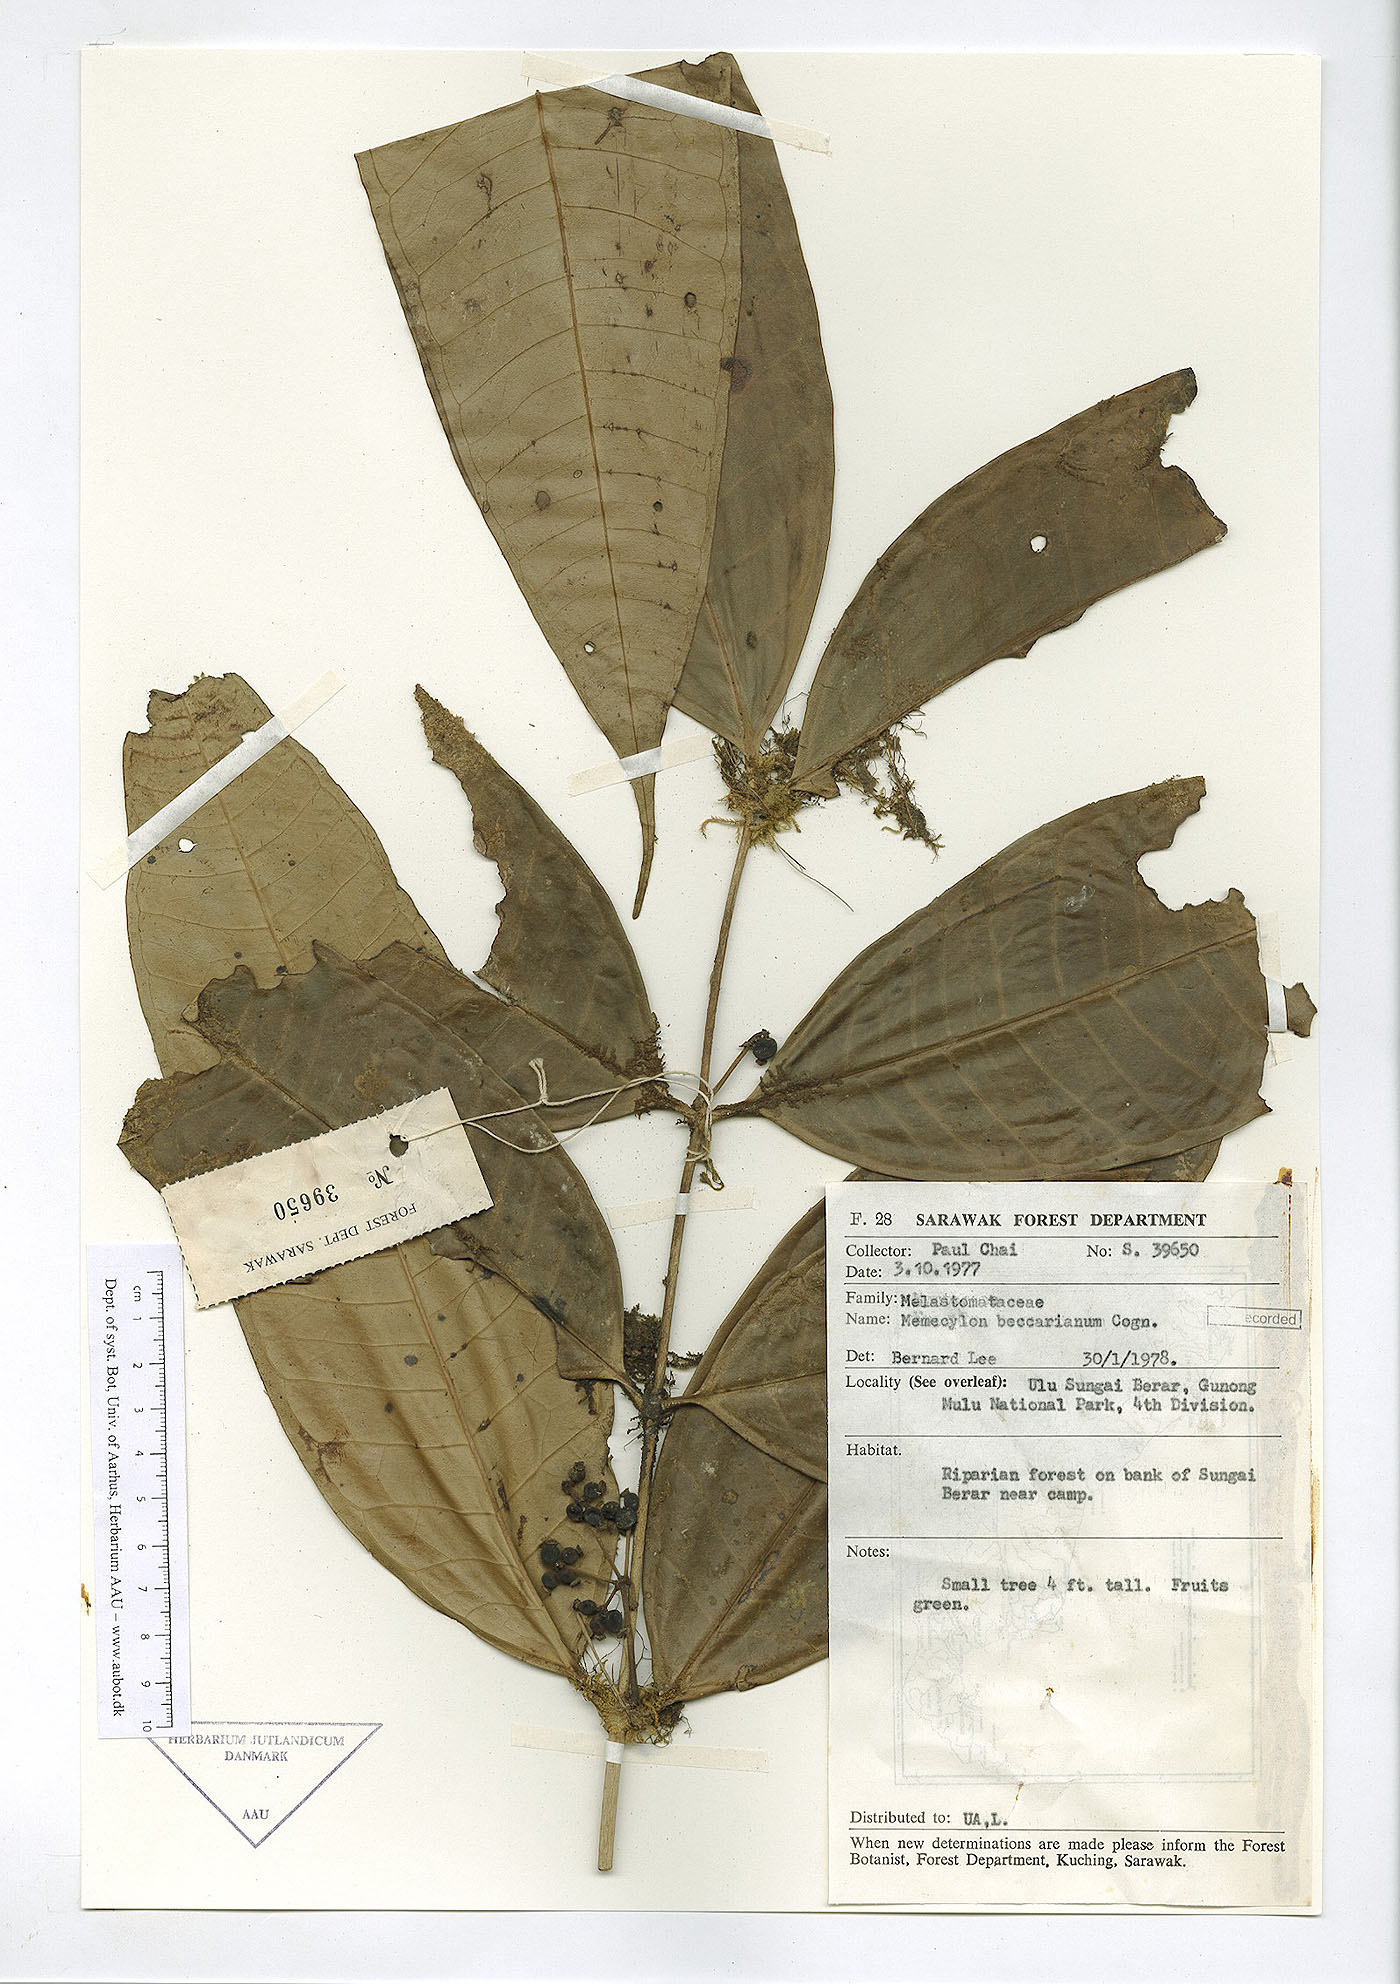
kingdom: Plantae
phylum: Tracheophyta
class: Magnoliopsida
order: Myrtales
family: Melastomataceae
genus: Memecylon
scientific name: Memecylon beccarianum
